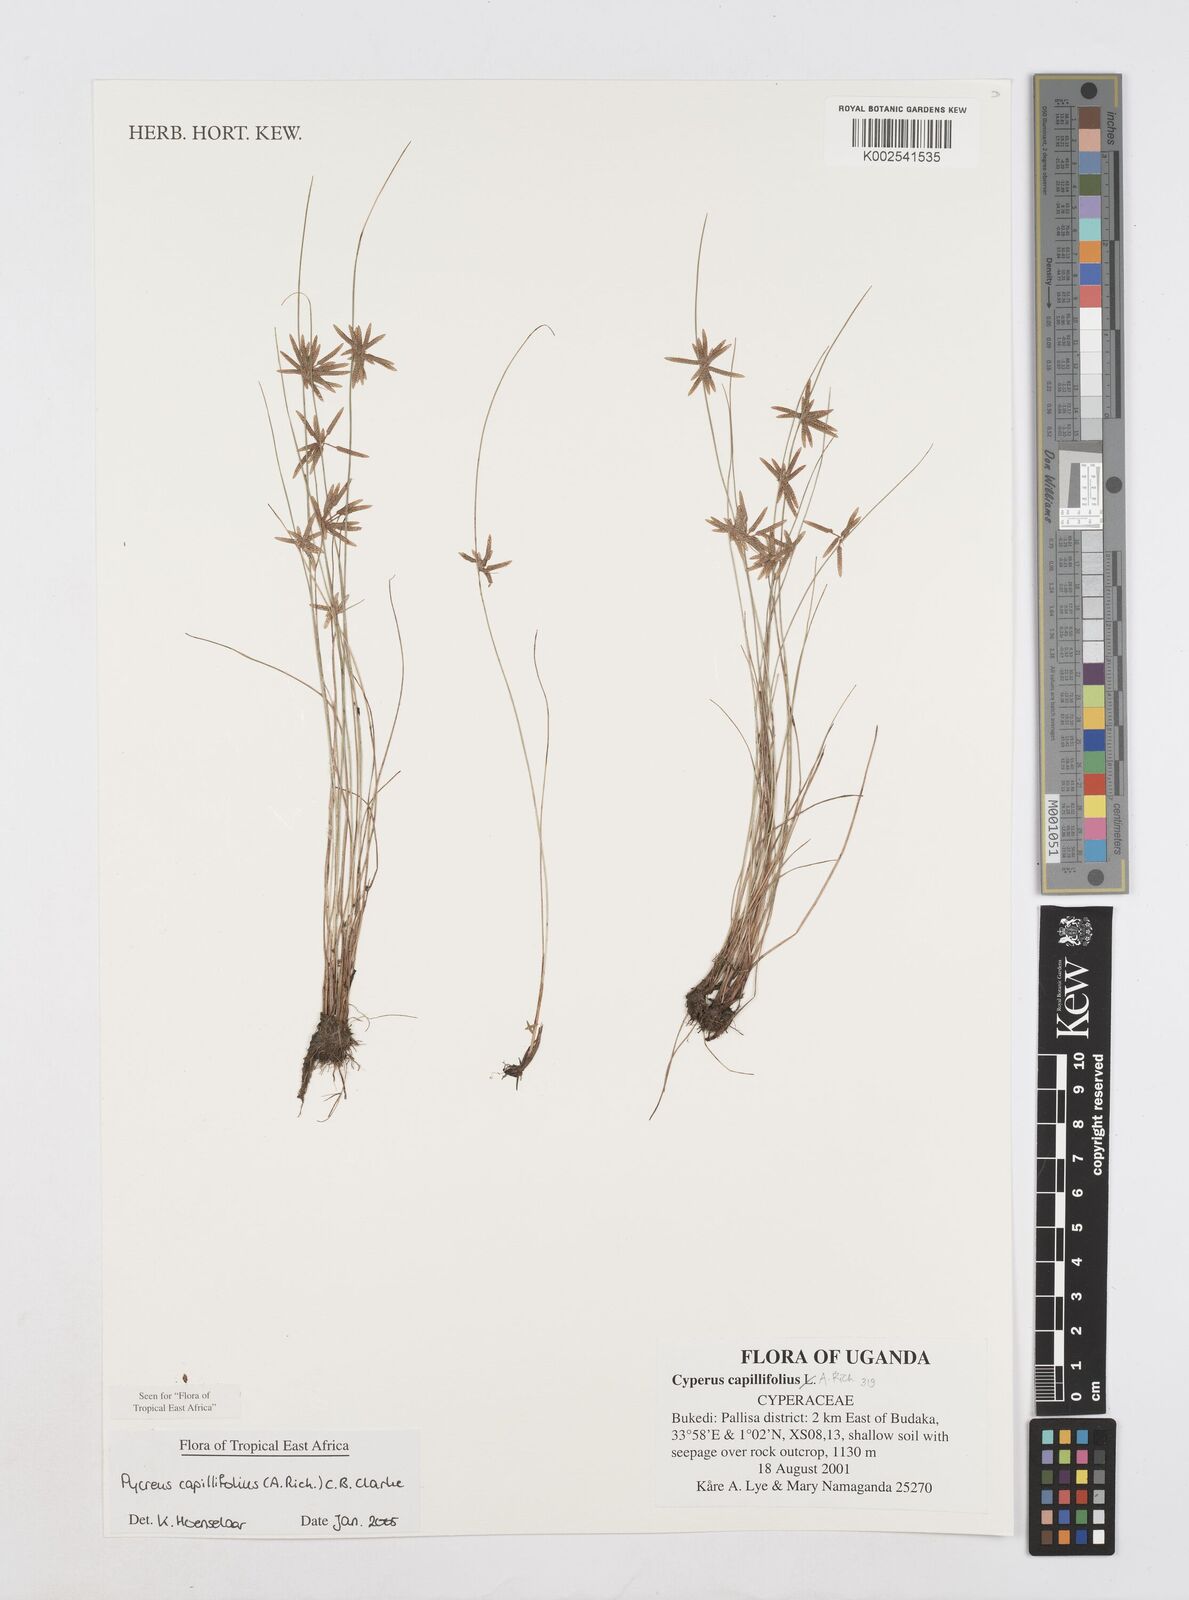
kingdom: Plantae
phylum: Tracheophyta
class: Liliopsida
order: Poales
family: Cyperaceae
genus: Cyperus
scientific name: Cyperus capillifolius
